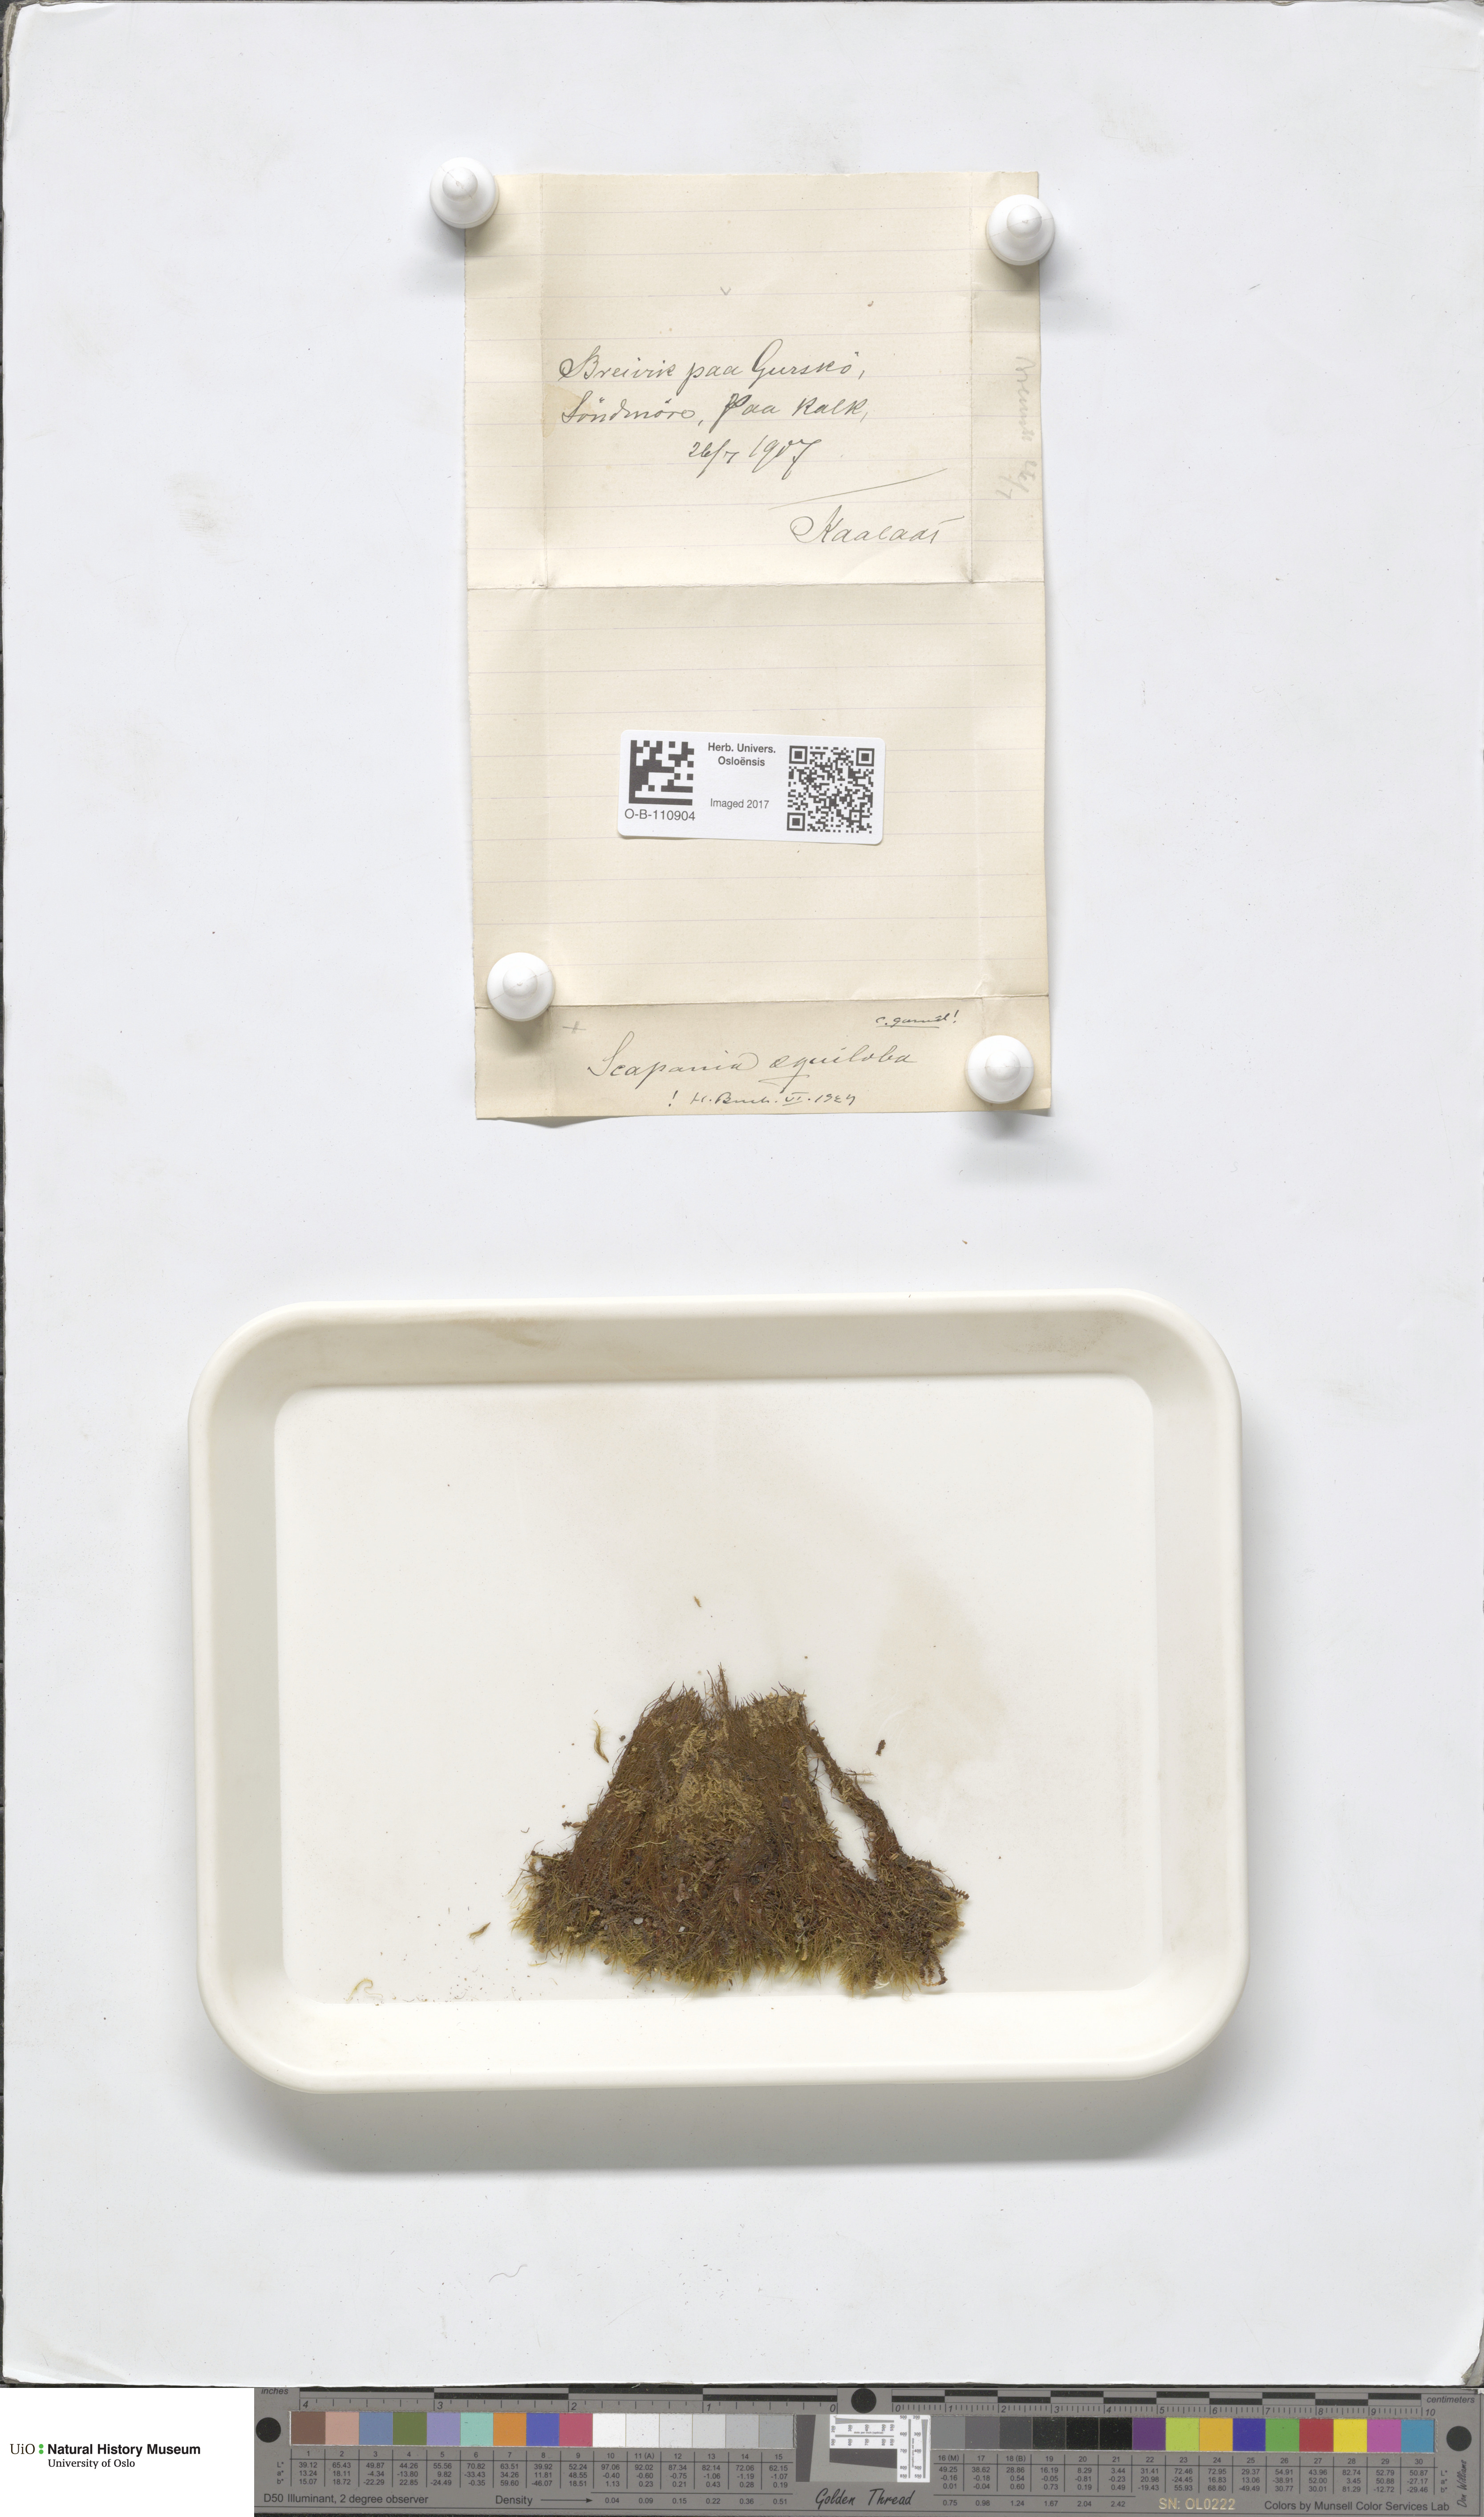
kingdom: Plantae
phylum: Marchantiophyta
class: Jungermanniopsida
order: Jungermanniales
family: Scapaniaceae
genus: Scapania
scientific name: Scapania aequiloba
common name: Lesser rough earwort
